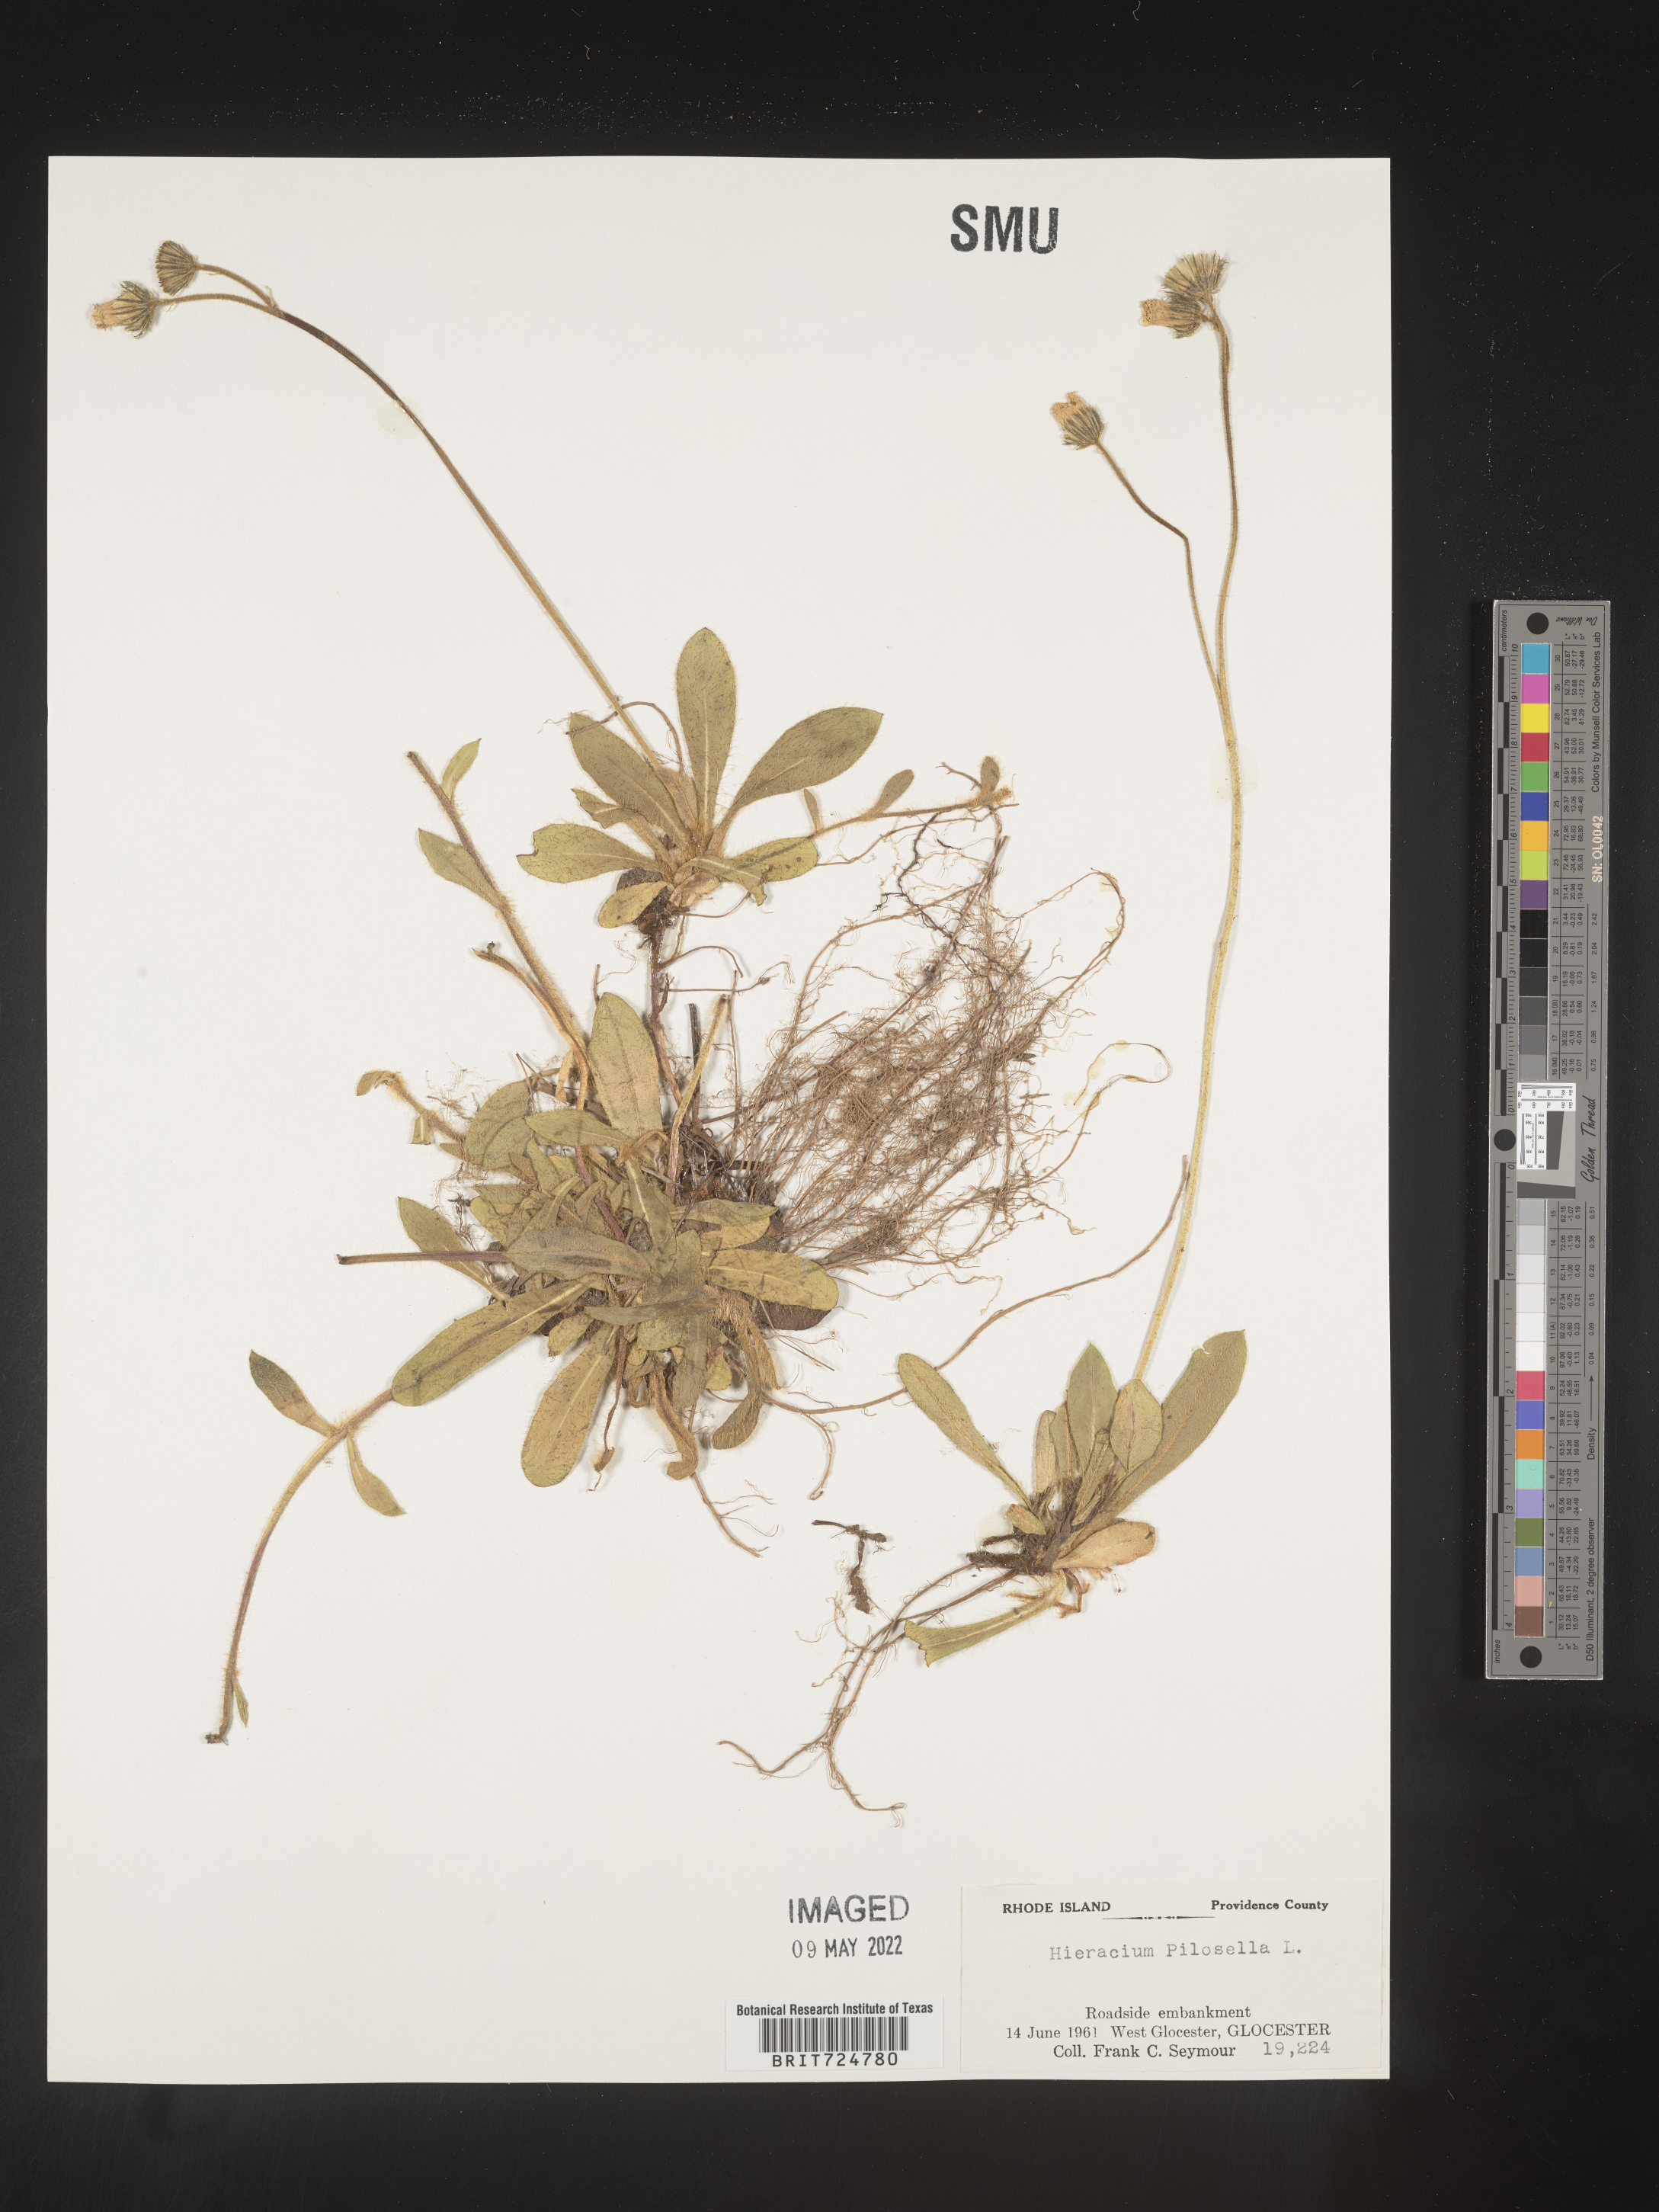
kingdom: Plantae
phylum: Tracheophyta
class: Magnoliopsida
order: Asterales
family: Asteraceae
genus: Hieracium
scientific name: Hieracium
